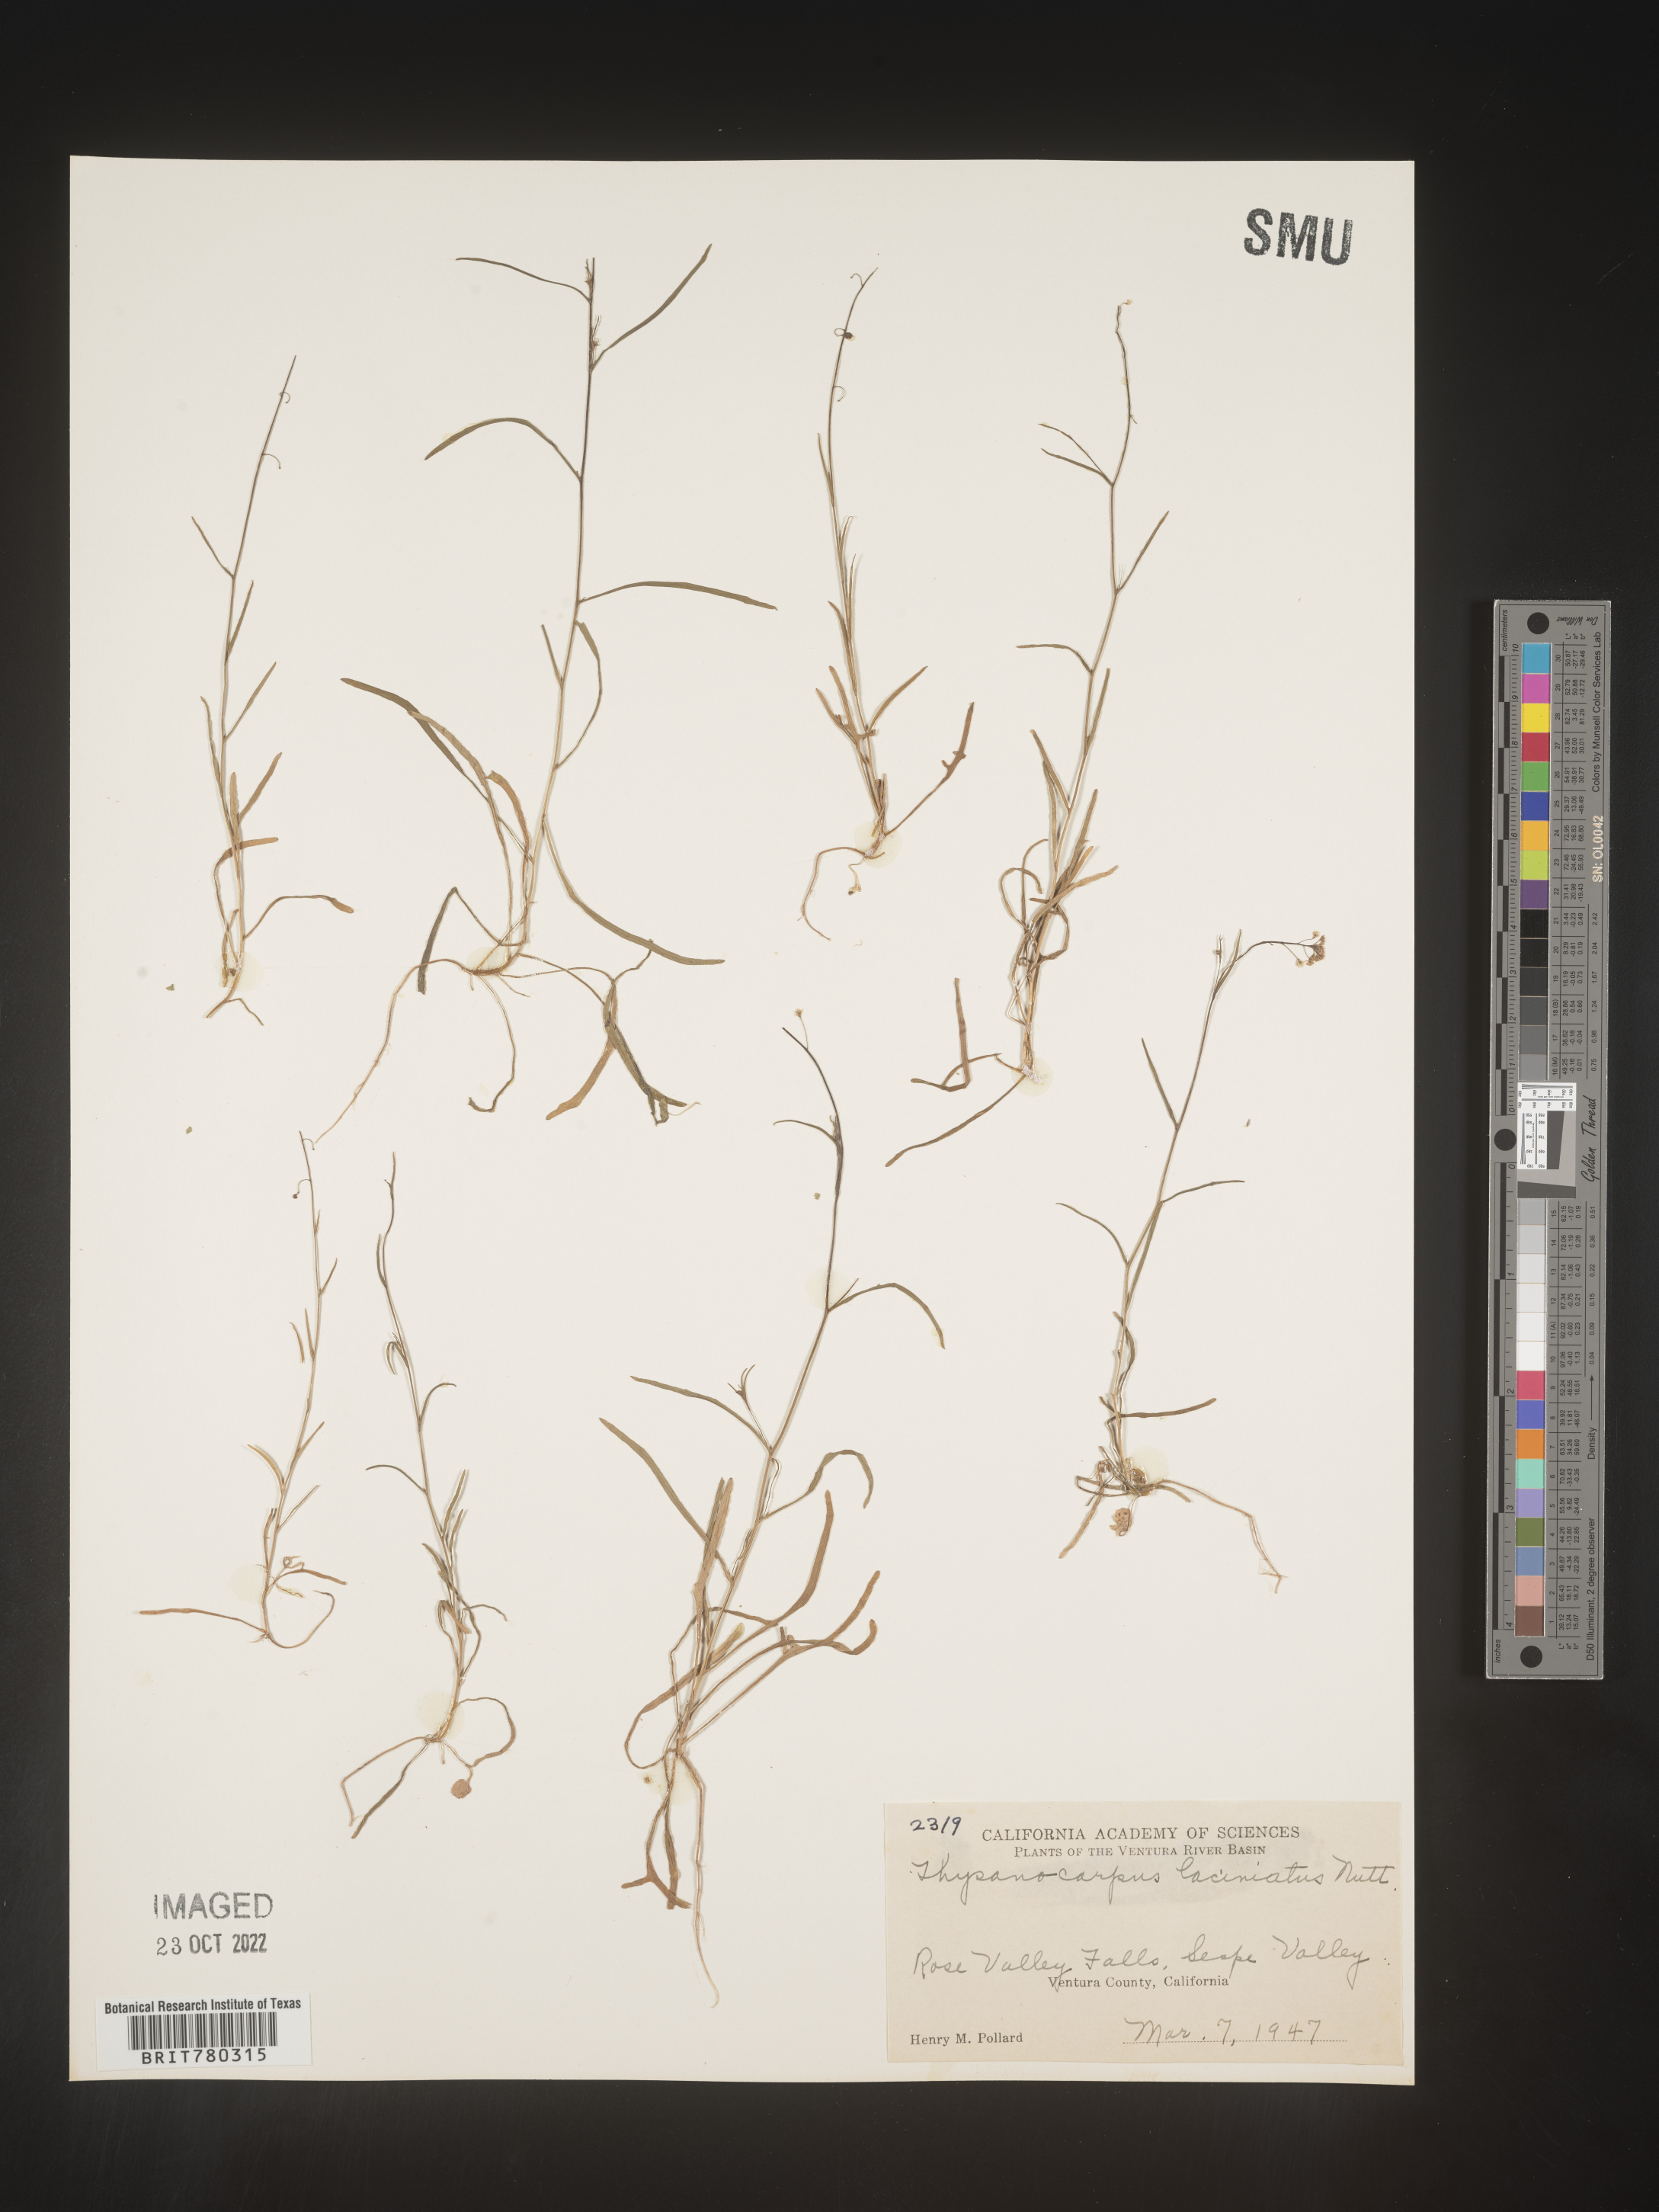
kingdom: Plantae
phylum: Tracheophyta
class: Magnoliopsida
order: Brassicales
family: Brassicaceae
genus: Thysanocarpus
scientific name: Thysanocarpus
